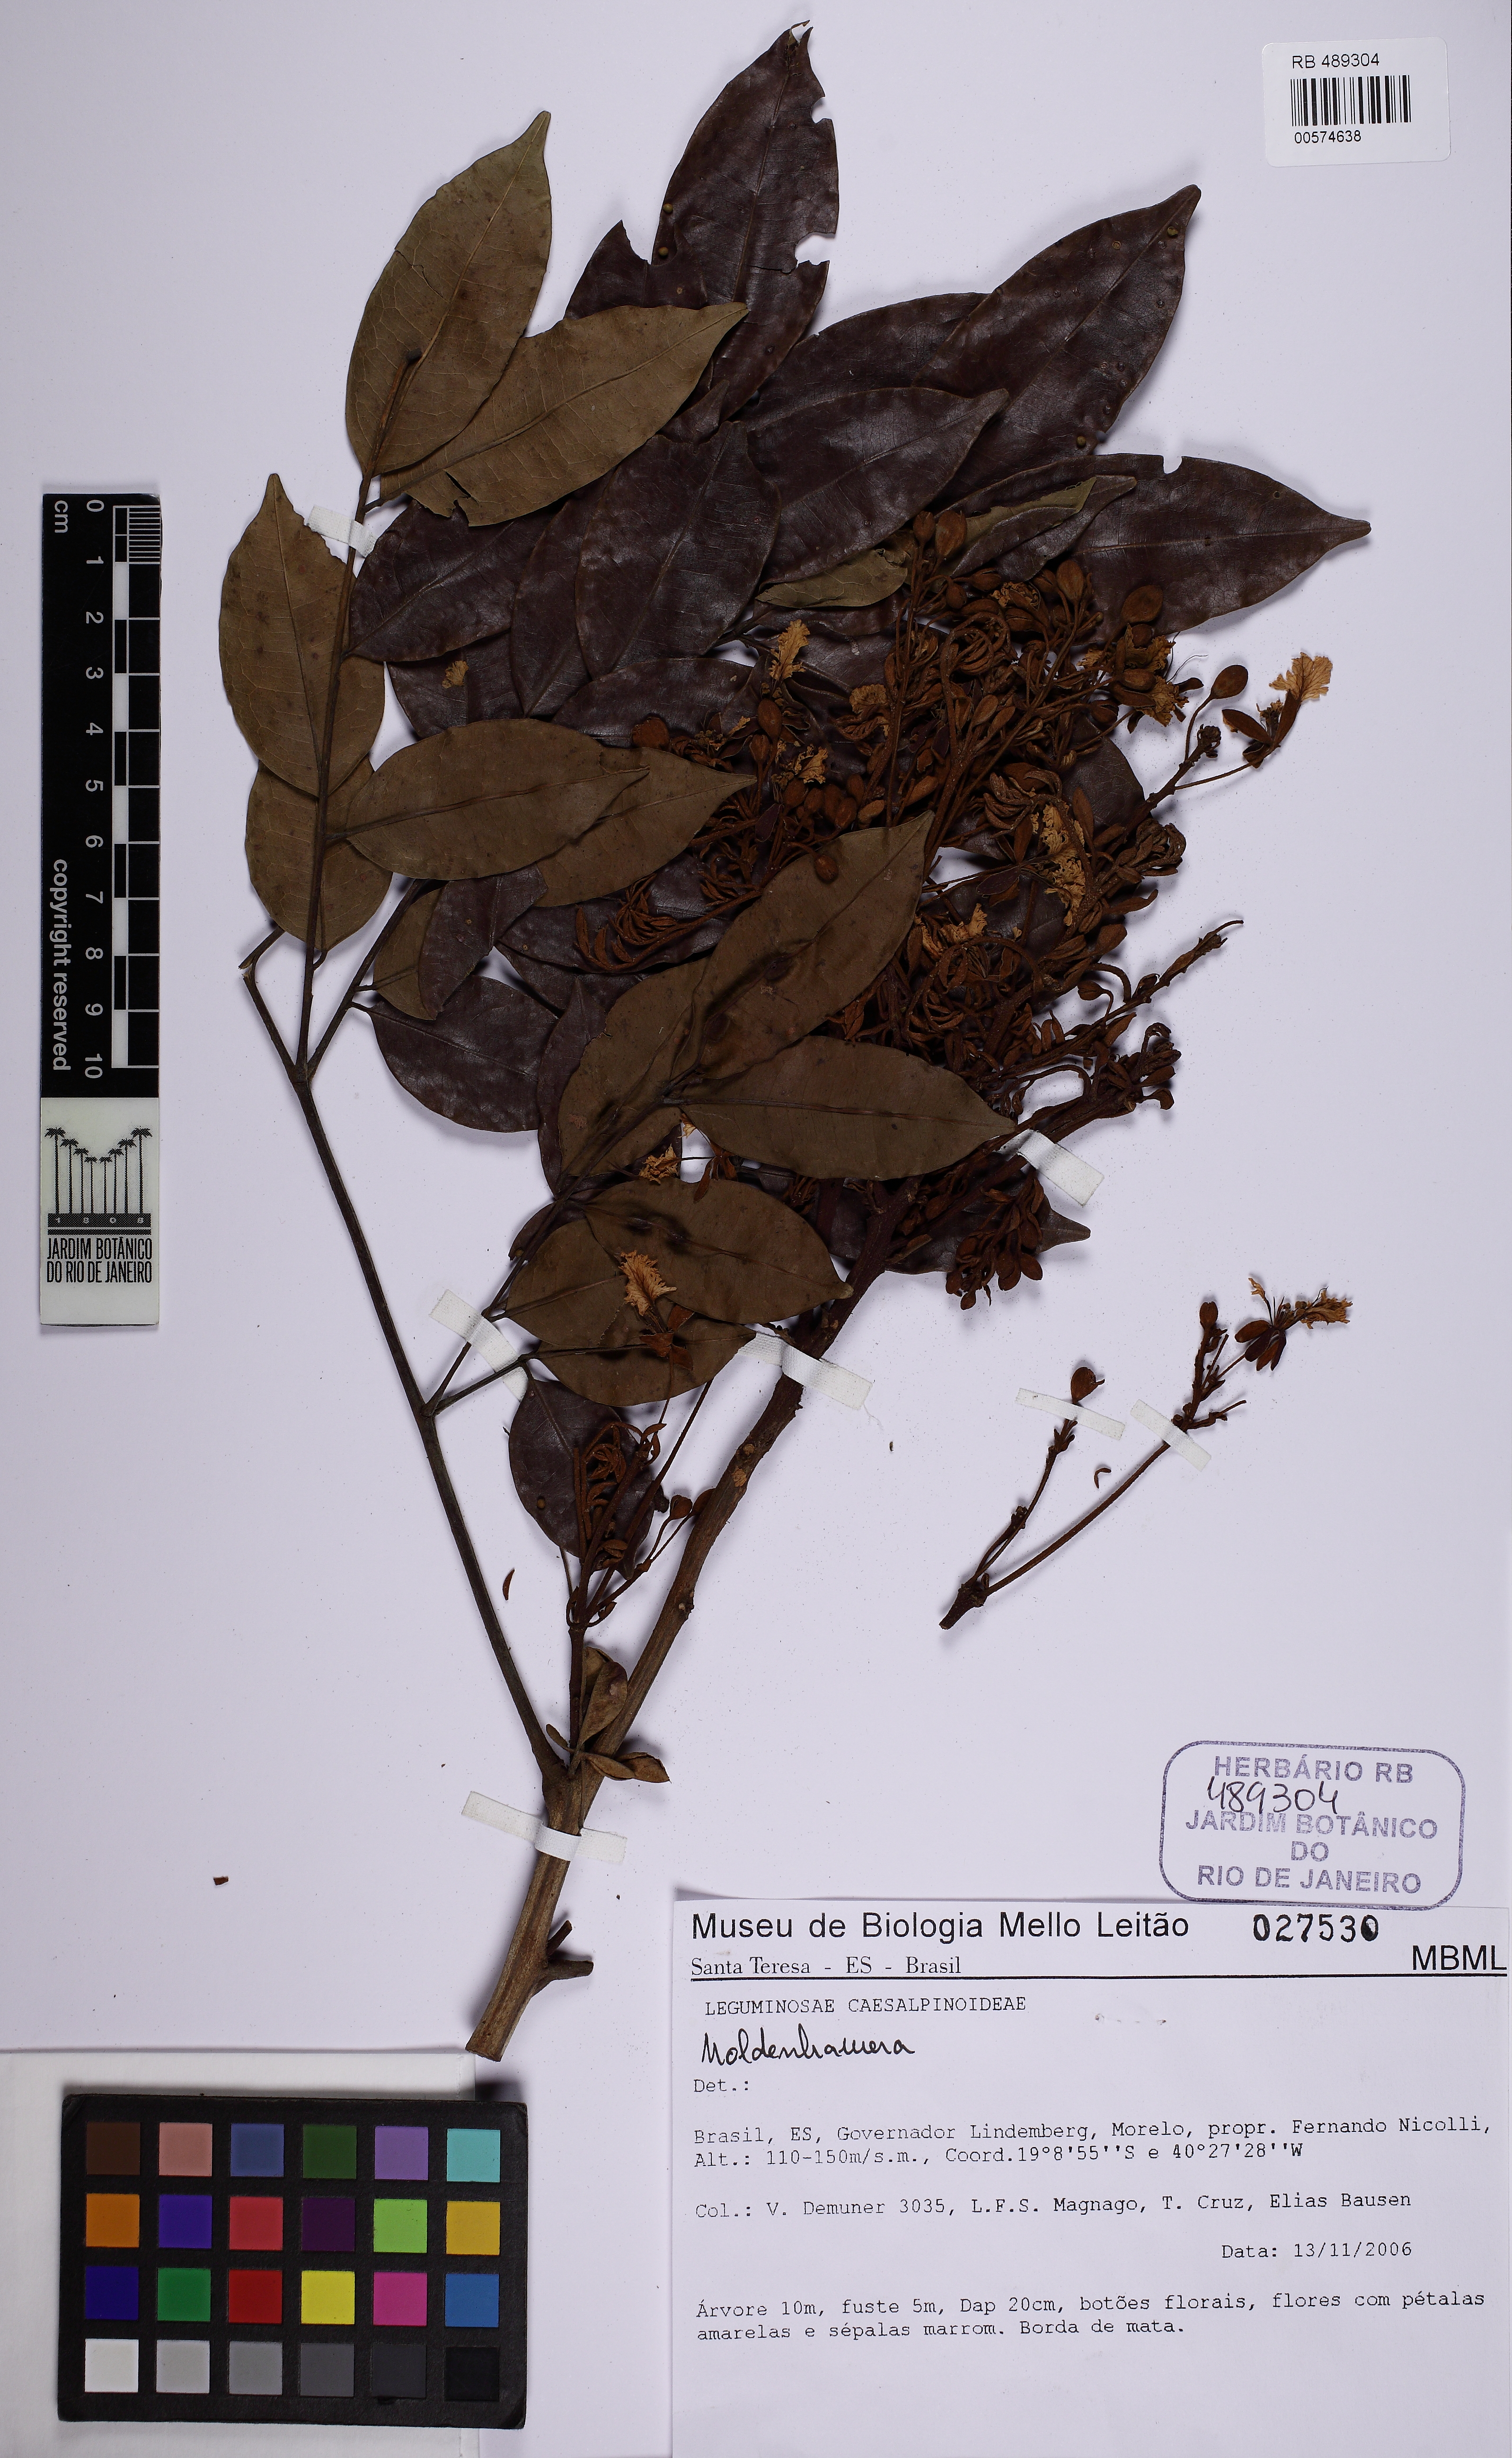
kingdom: Plantae
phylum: Tracheophyta
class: Magnoliopsida
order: Fabales
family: Fabaceae
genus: Moldenhawera
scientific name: Moldenhawera papillanthera
